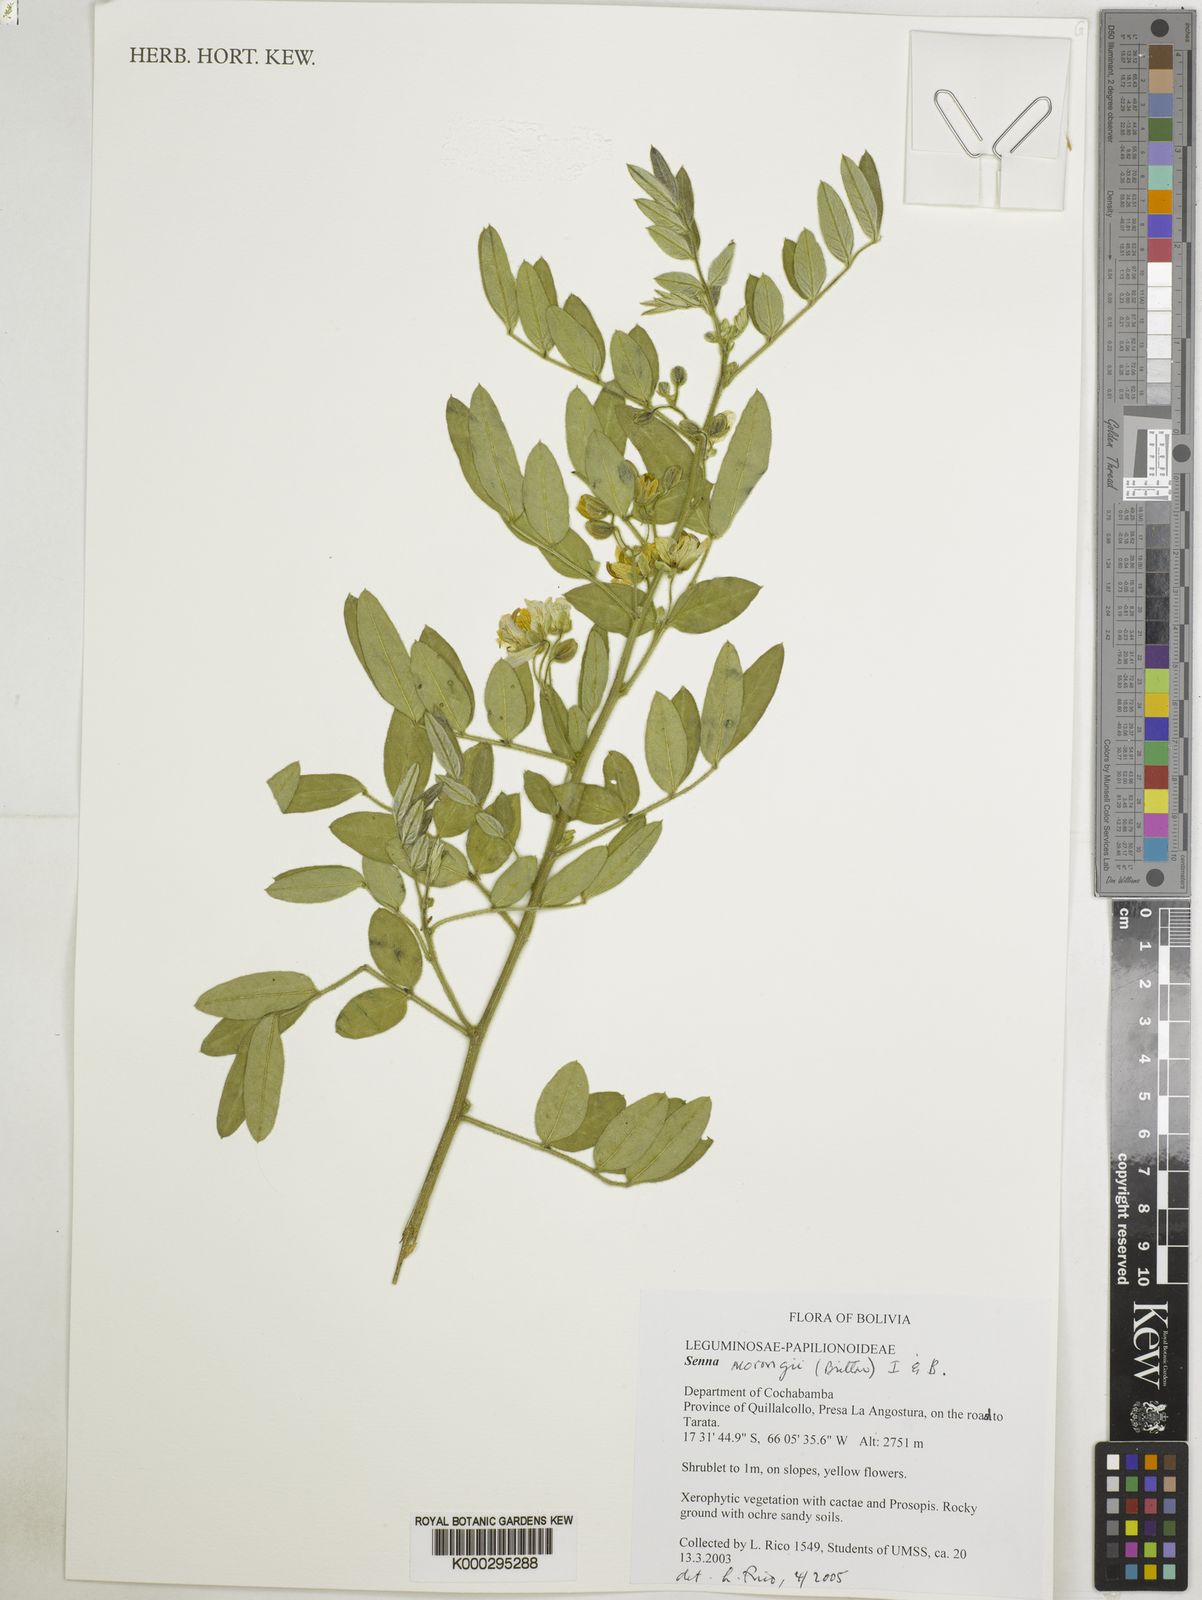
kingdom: Plantae
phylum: Tracheophyta
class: Magnoliopsida
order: Fabales
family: Fabaceae
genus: Senna
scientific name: Senna
